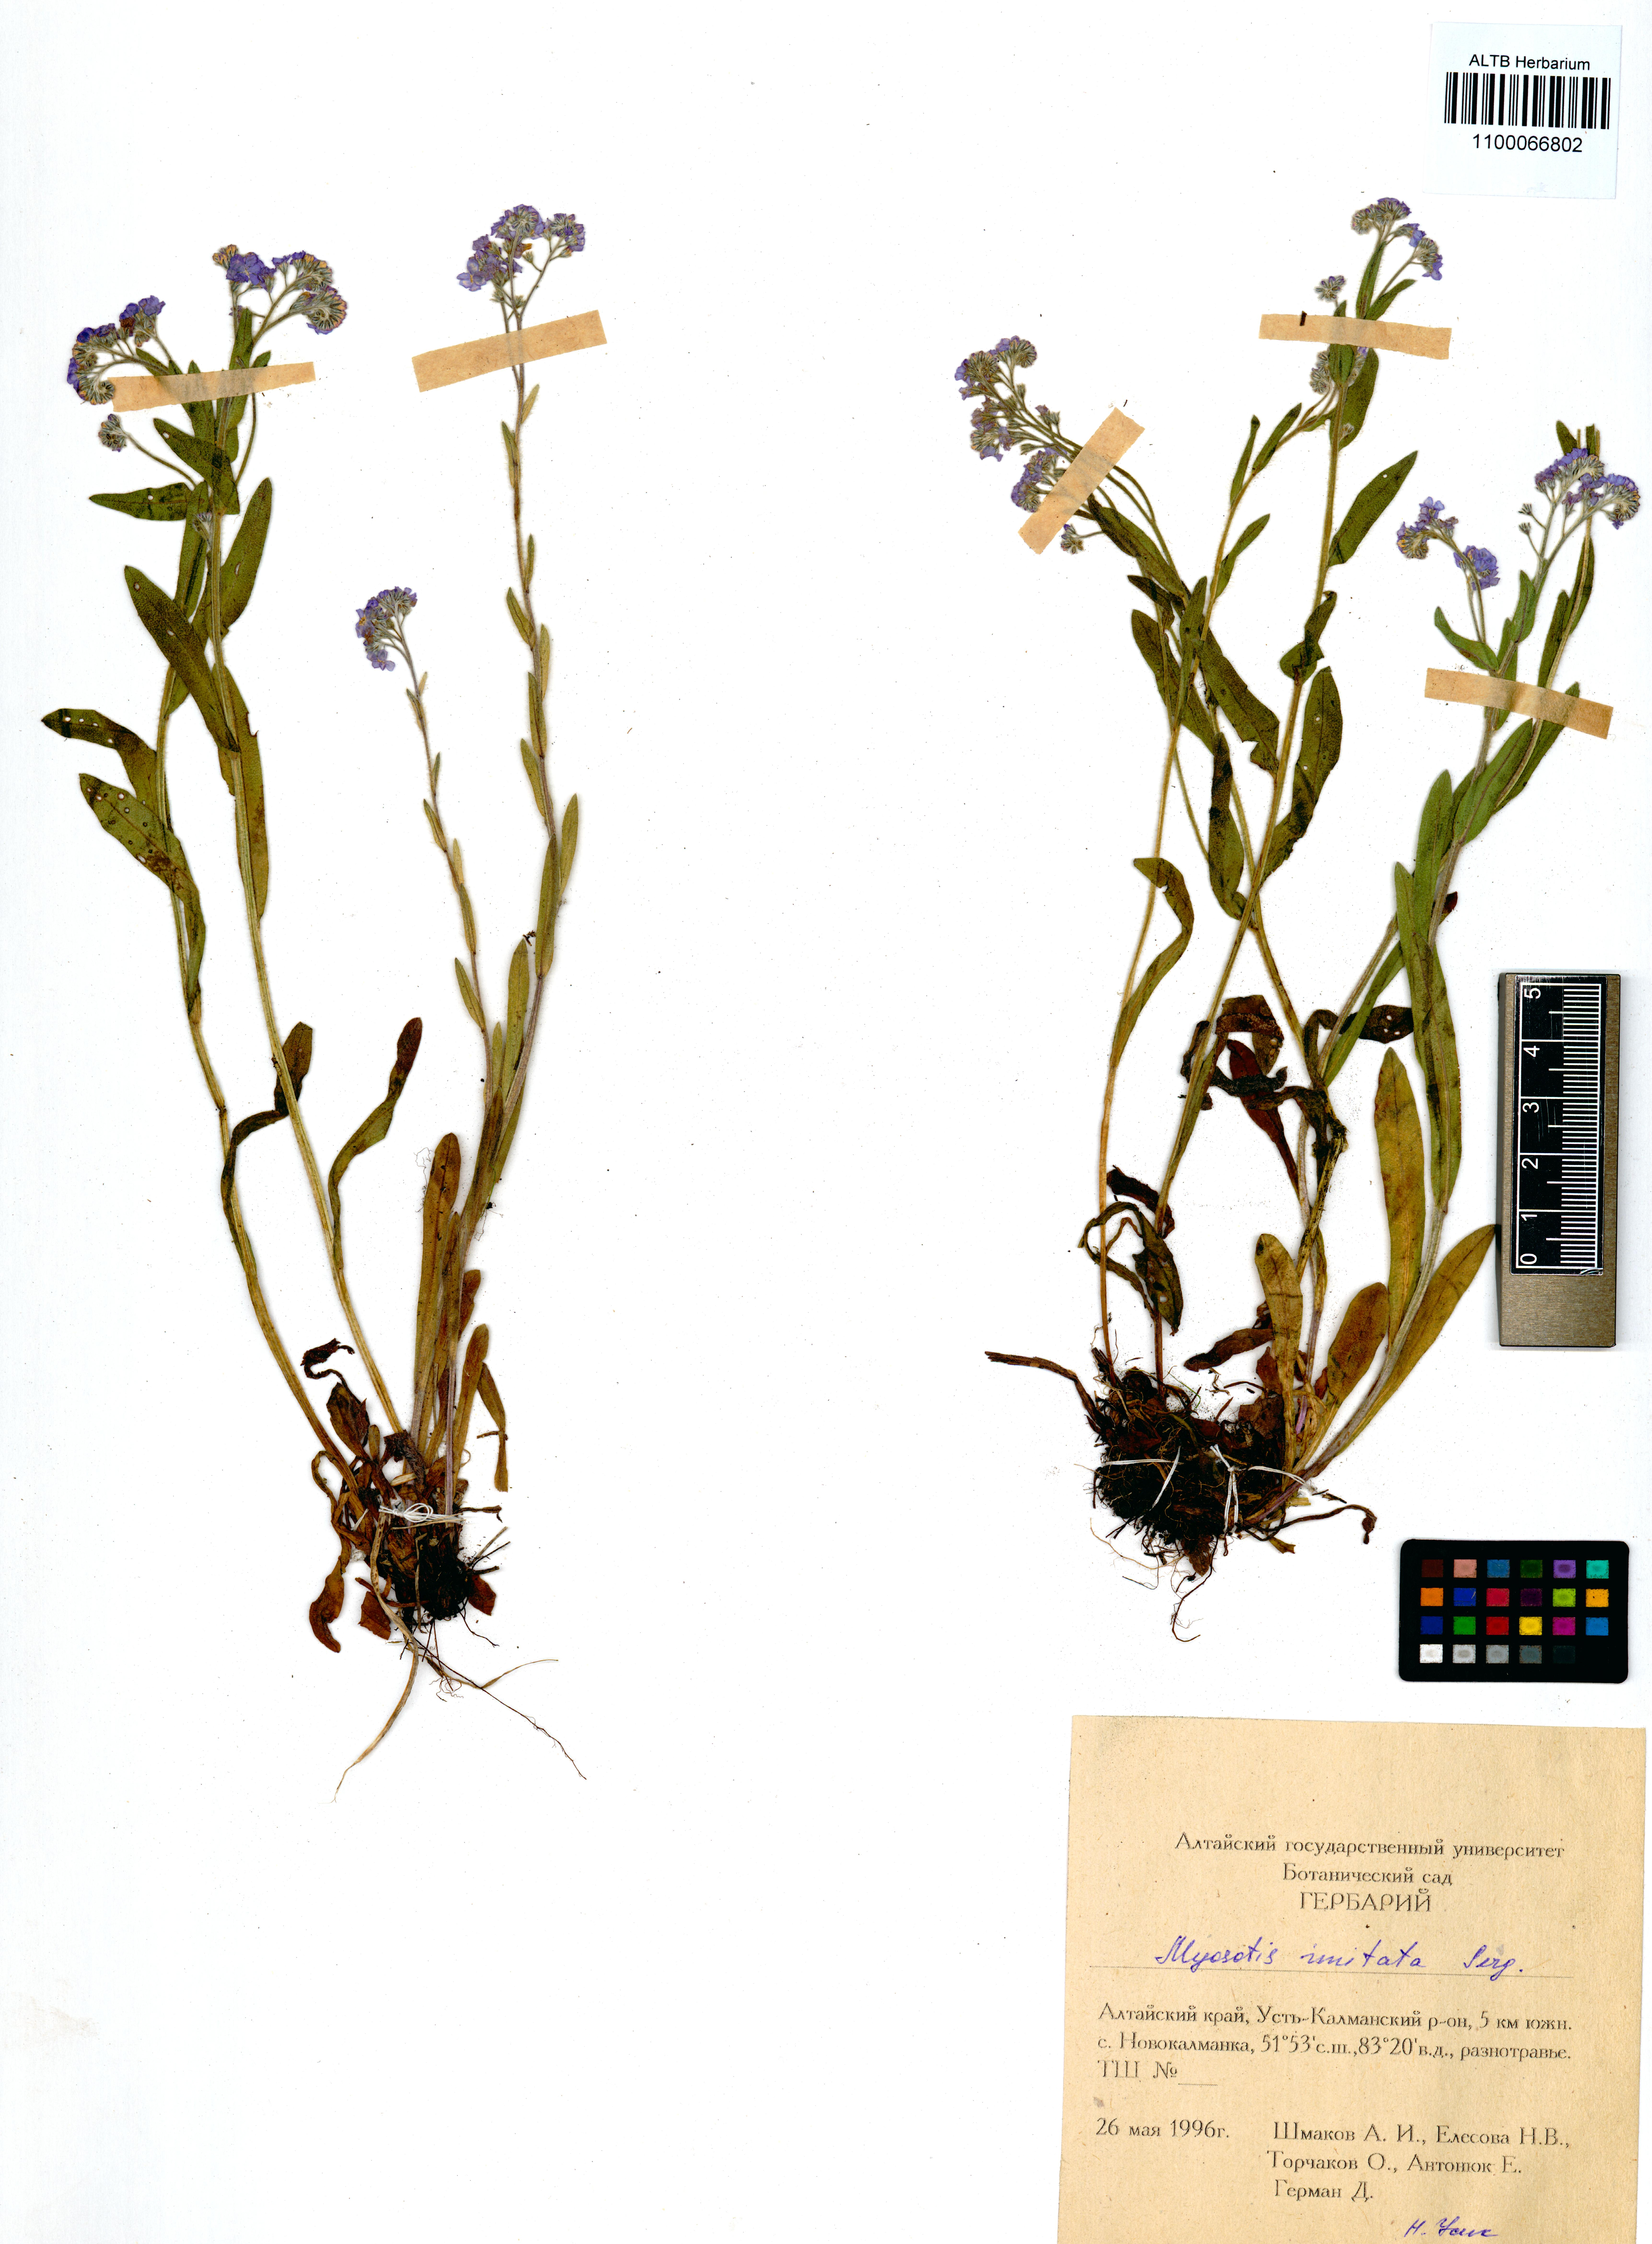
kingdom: Plantae
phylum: Tracheophyta
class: Magnoliopsida
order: Boraginales
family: Boraginaceae
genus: Myosotis
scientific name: Myosotis imitata
